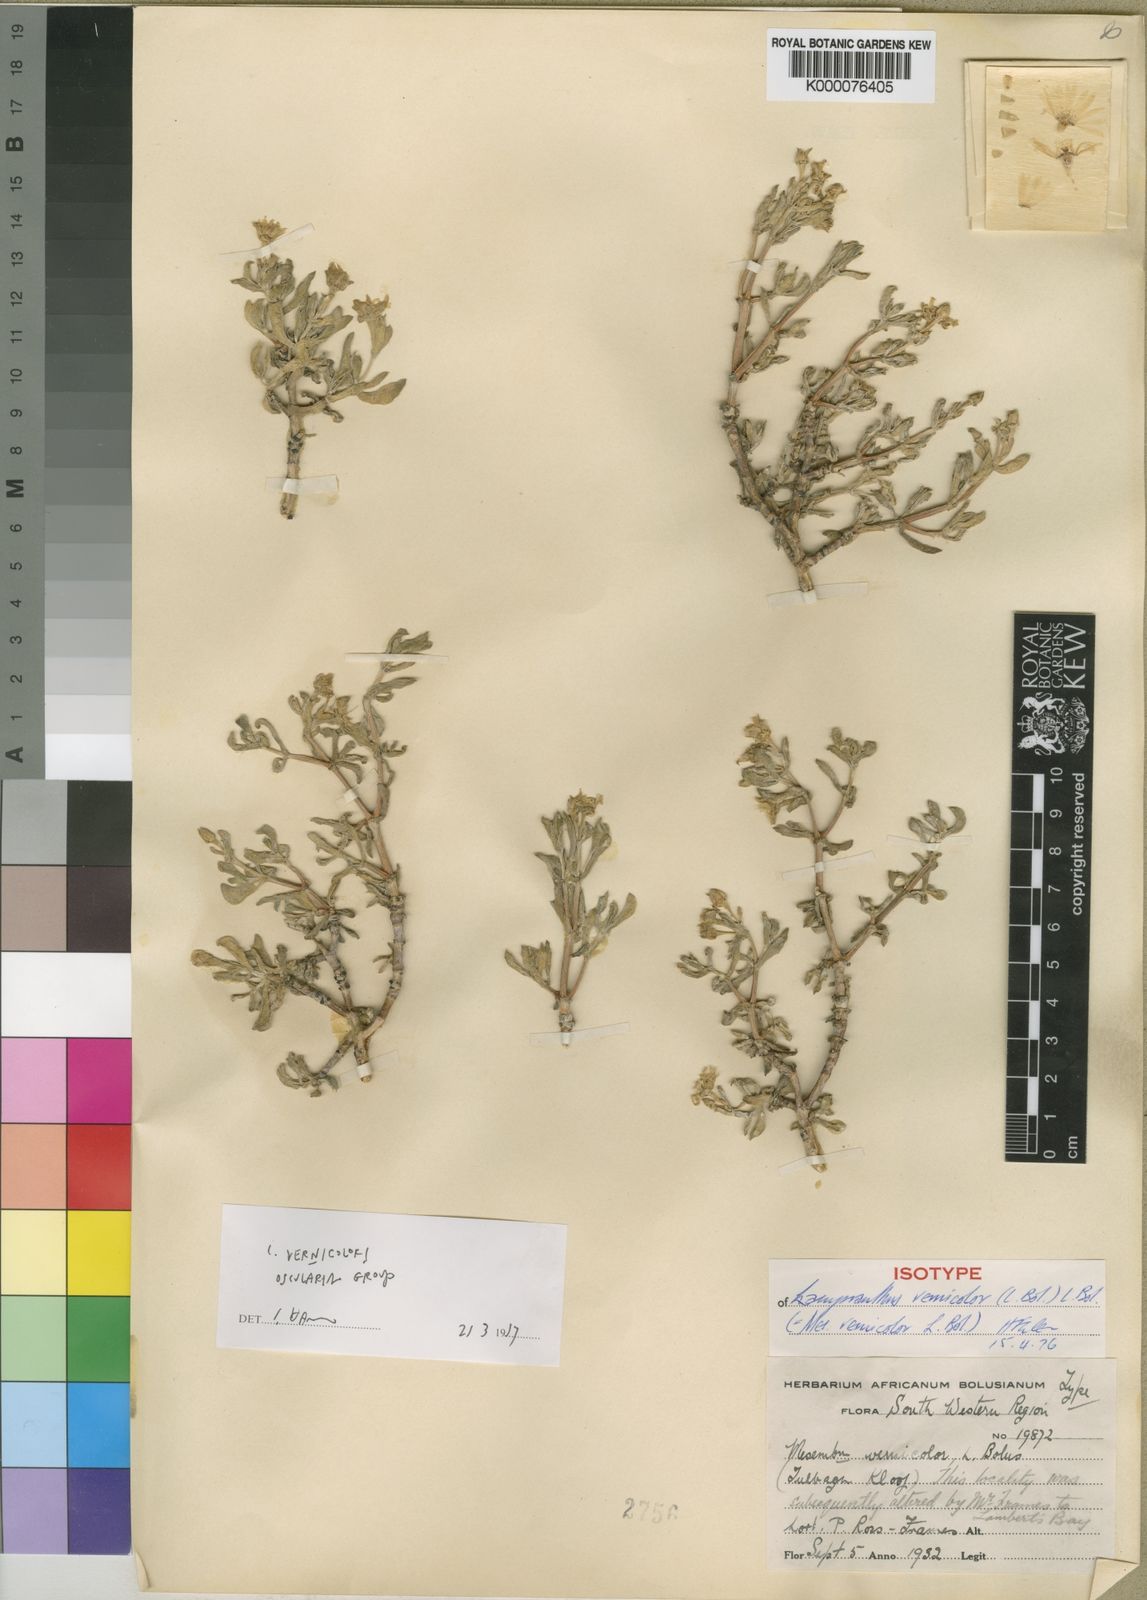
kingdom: Plantae
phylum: Tracheophyta
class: Magnoliopsida
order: Caryophyllales
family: Aizoaceae
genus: Oscularia
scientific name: Oscularia vernicolor
